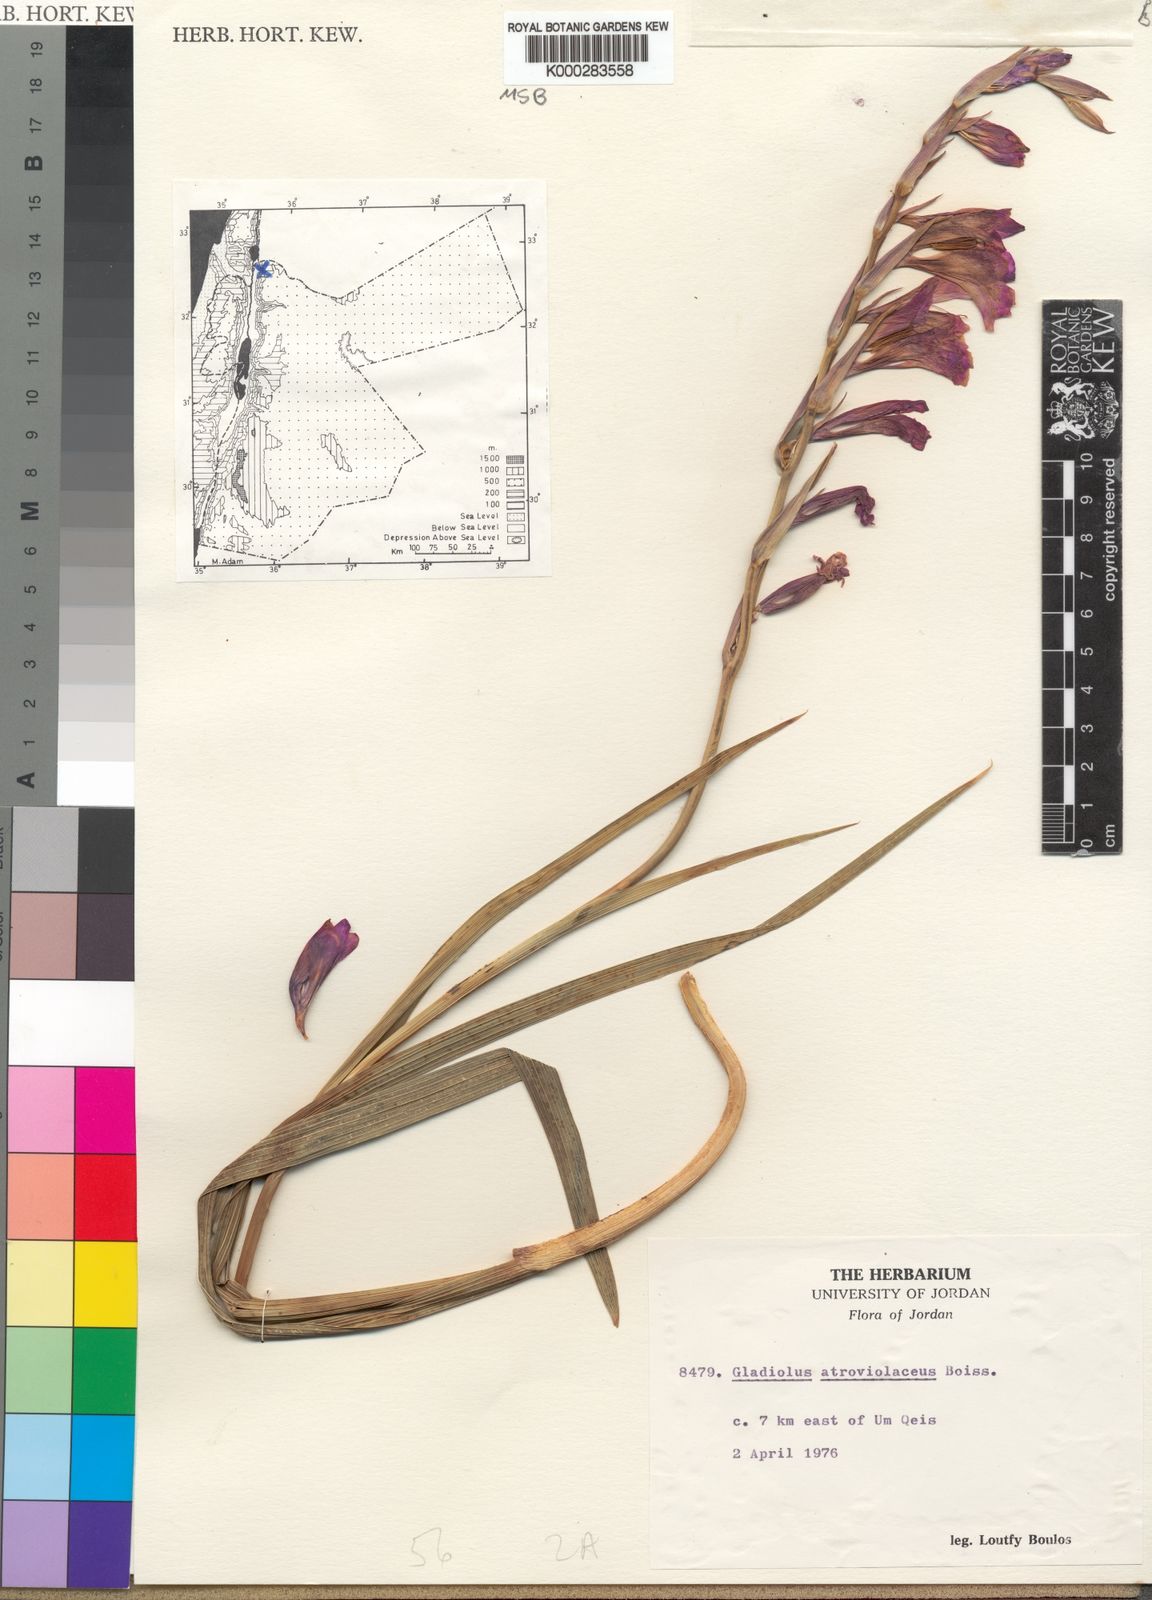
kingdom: Plantae
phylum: Tracheophyta
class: Liliopsida
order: Asparagales
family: Iridaceae
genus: Gladiolus
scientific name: Gladiolus atroviolaceus
